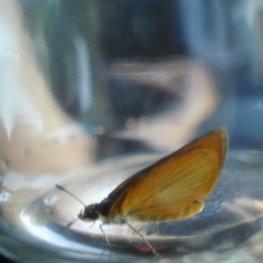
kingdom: Animalia
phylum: Arthropoda
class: Insecta
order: Lepidoptera
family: Hesperiidae
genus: Ancyloxypha
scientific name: Ancyloxypha numitor
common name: Least Skipper
